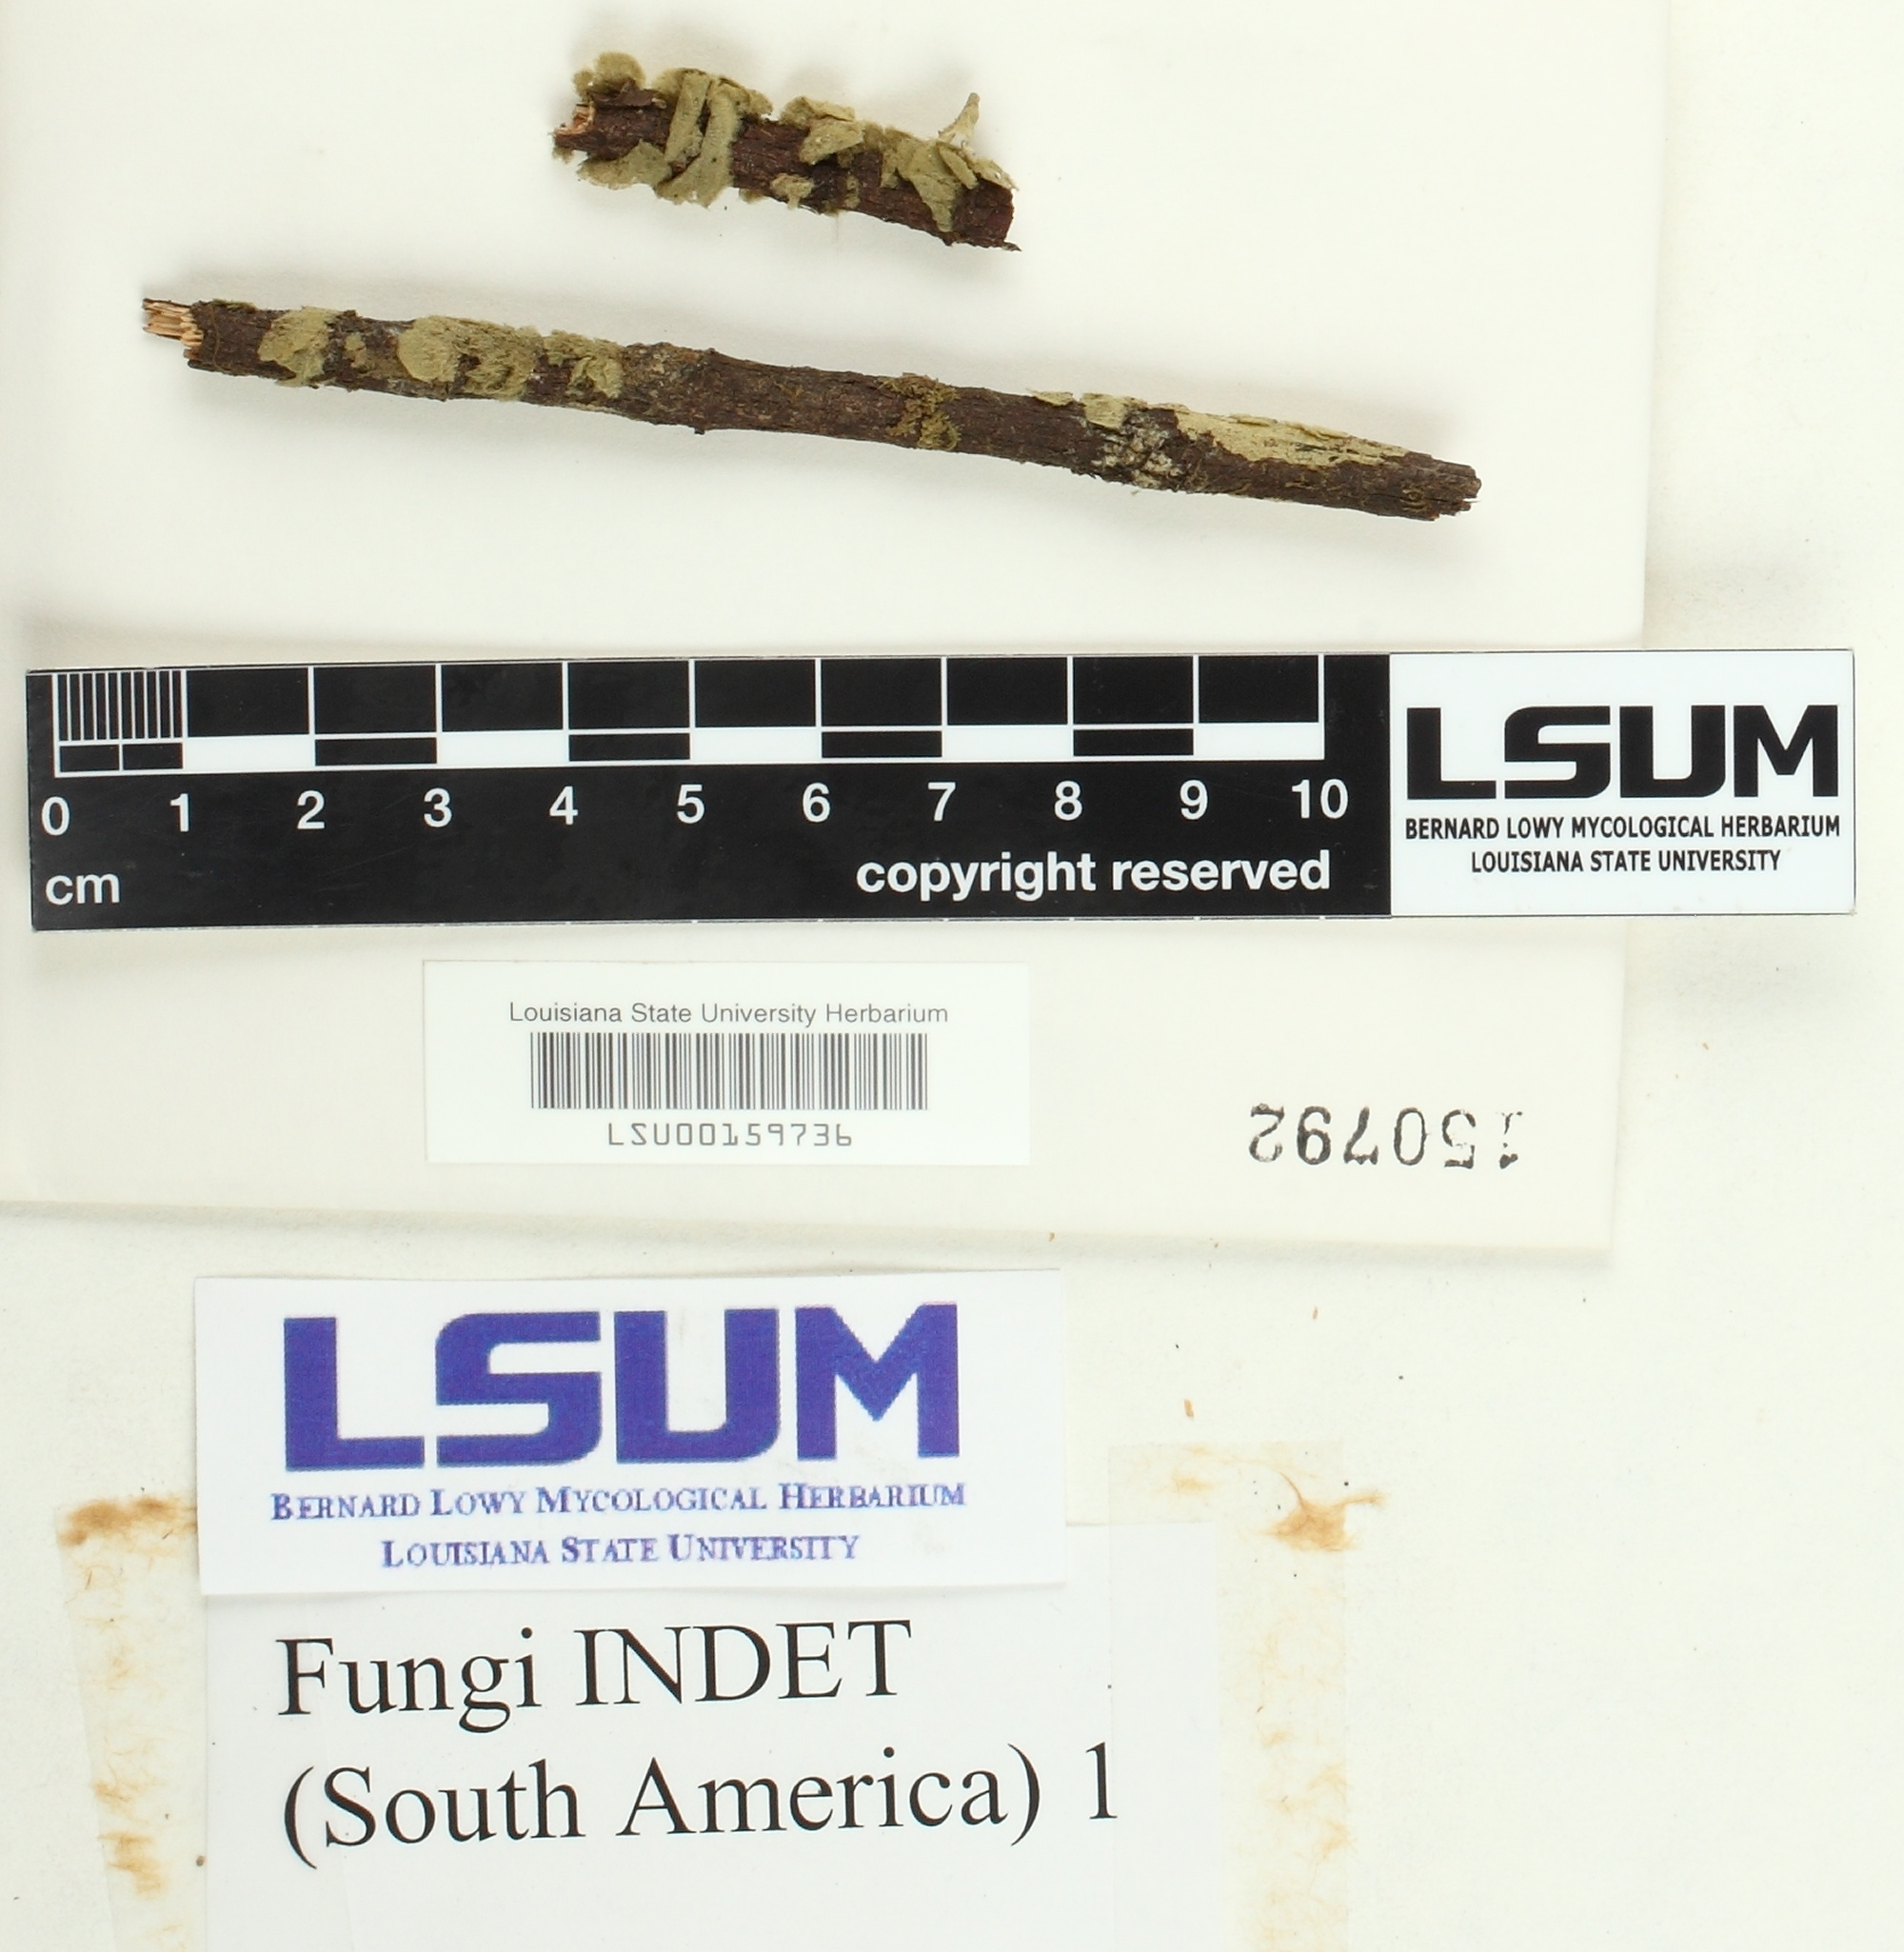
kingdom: Fungi
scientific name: Fungi
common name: Fungi
